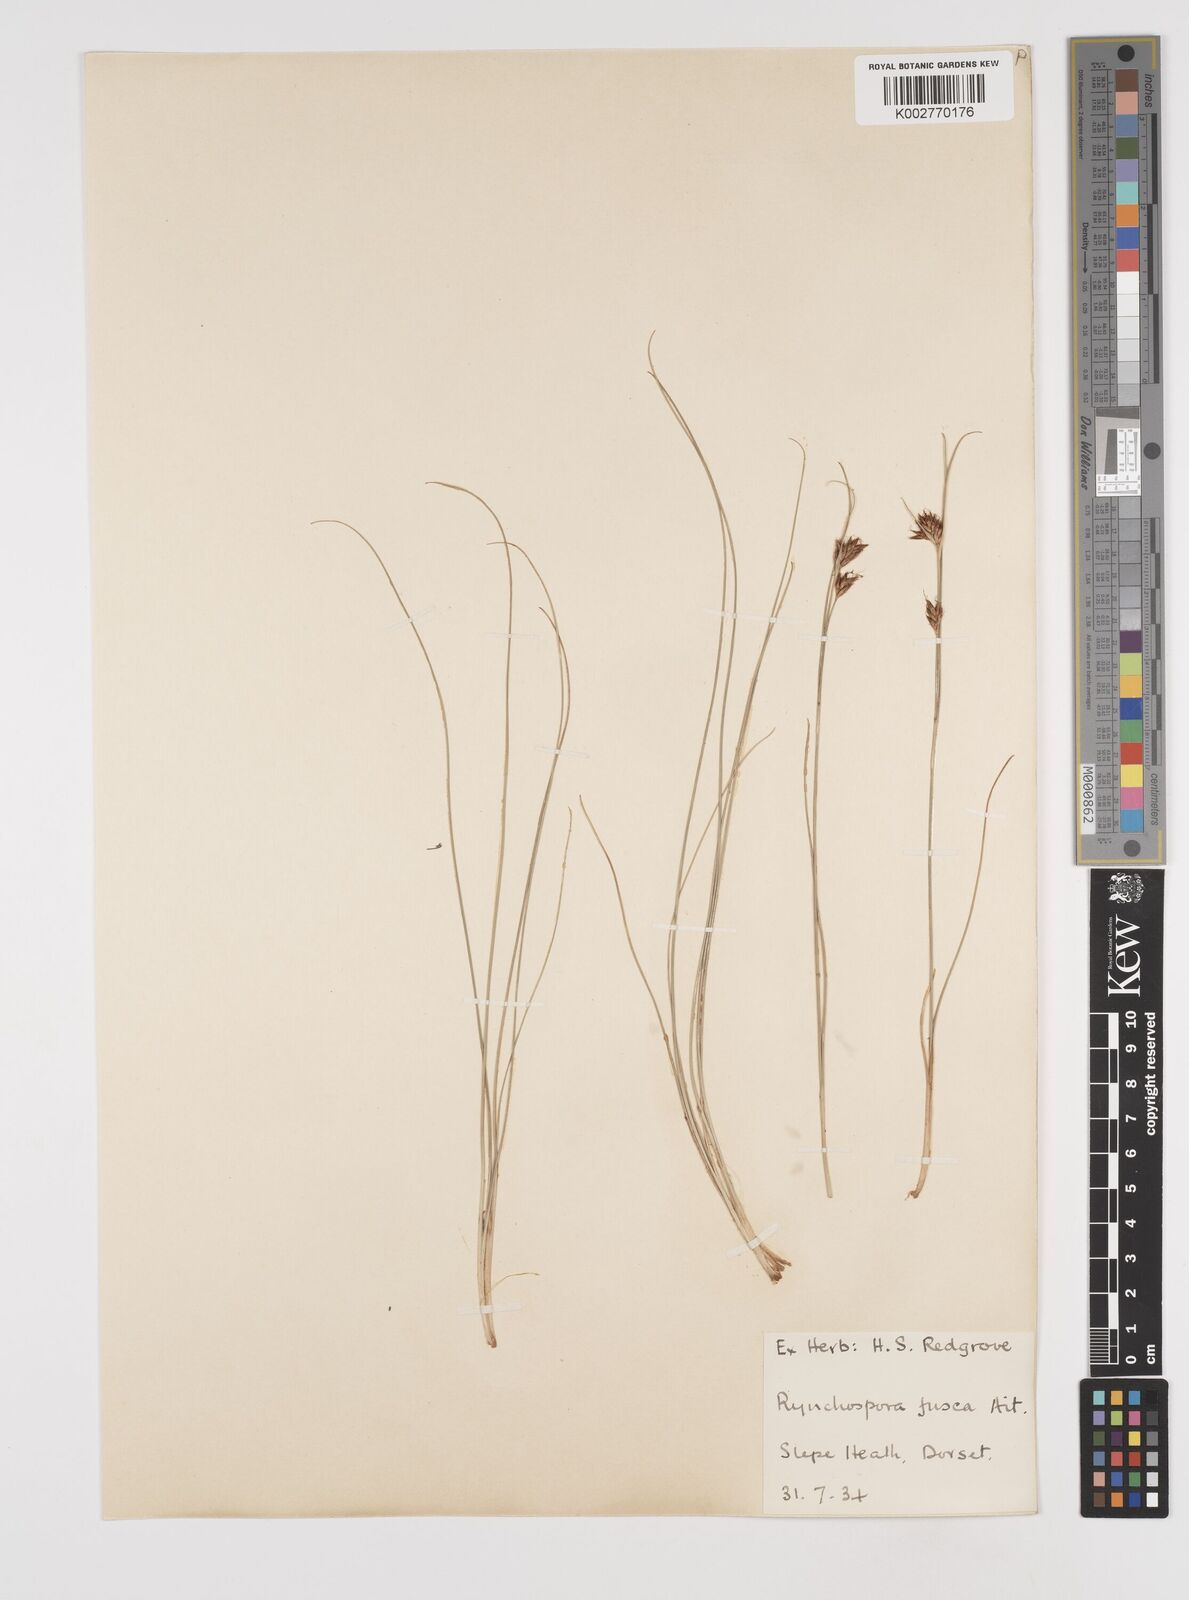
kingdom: Plantae
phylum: Tracheophyta
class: Liliopsida
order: Poales
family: Cyperaceae
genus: Rhynchospora
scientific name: Rhynchospora fusca
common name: Brown beak-sedge
